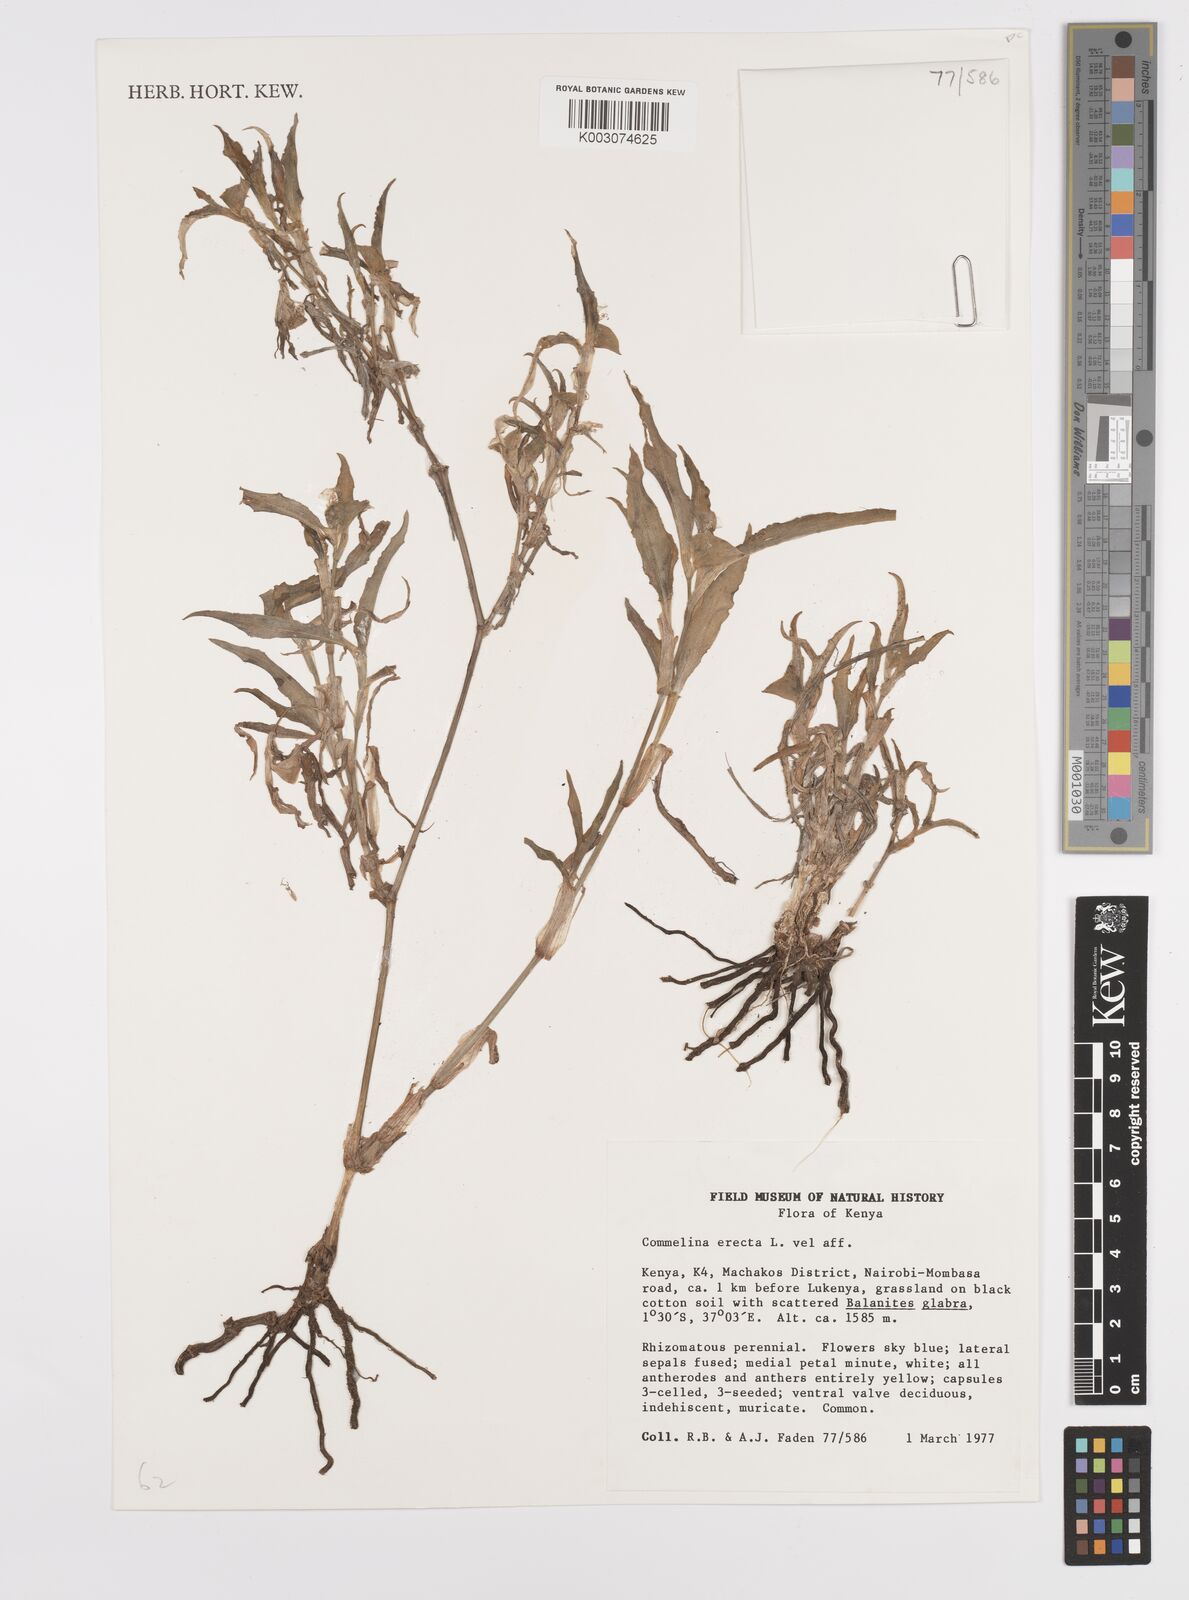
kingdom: Plantae
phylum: Tracheophyta
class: Liliopsida
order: Commelinales
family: Commelinaceae
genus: Commelina
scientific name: Commelina erecta
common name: Blousel blommetjie
